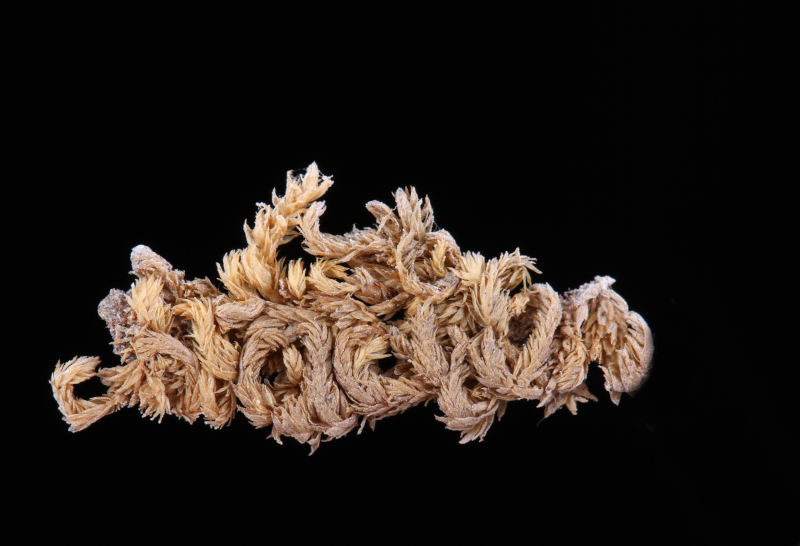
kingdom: Plantae
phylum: Bryophyta
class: Bryopsida
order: Hypnales
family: Symphyodontaceae
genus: Chaetomitrium
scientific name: Chaetomitrium
